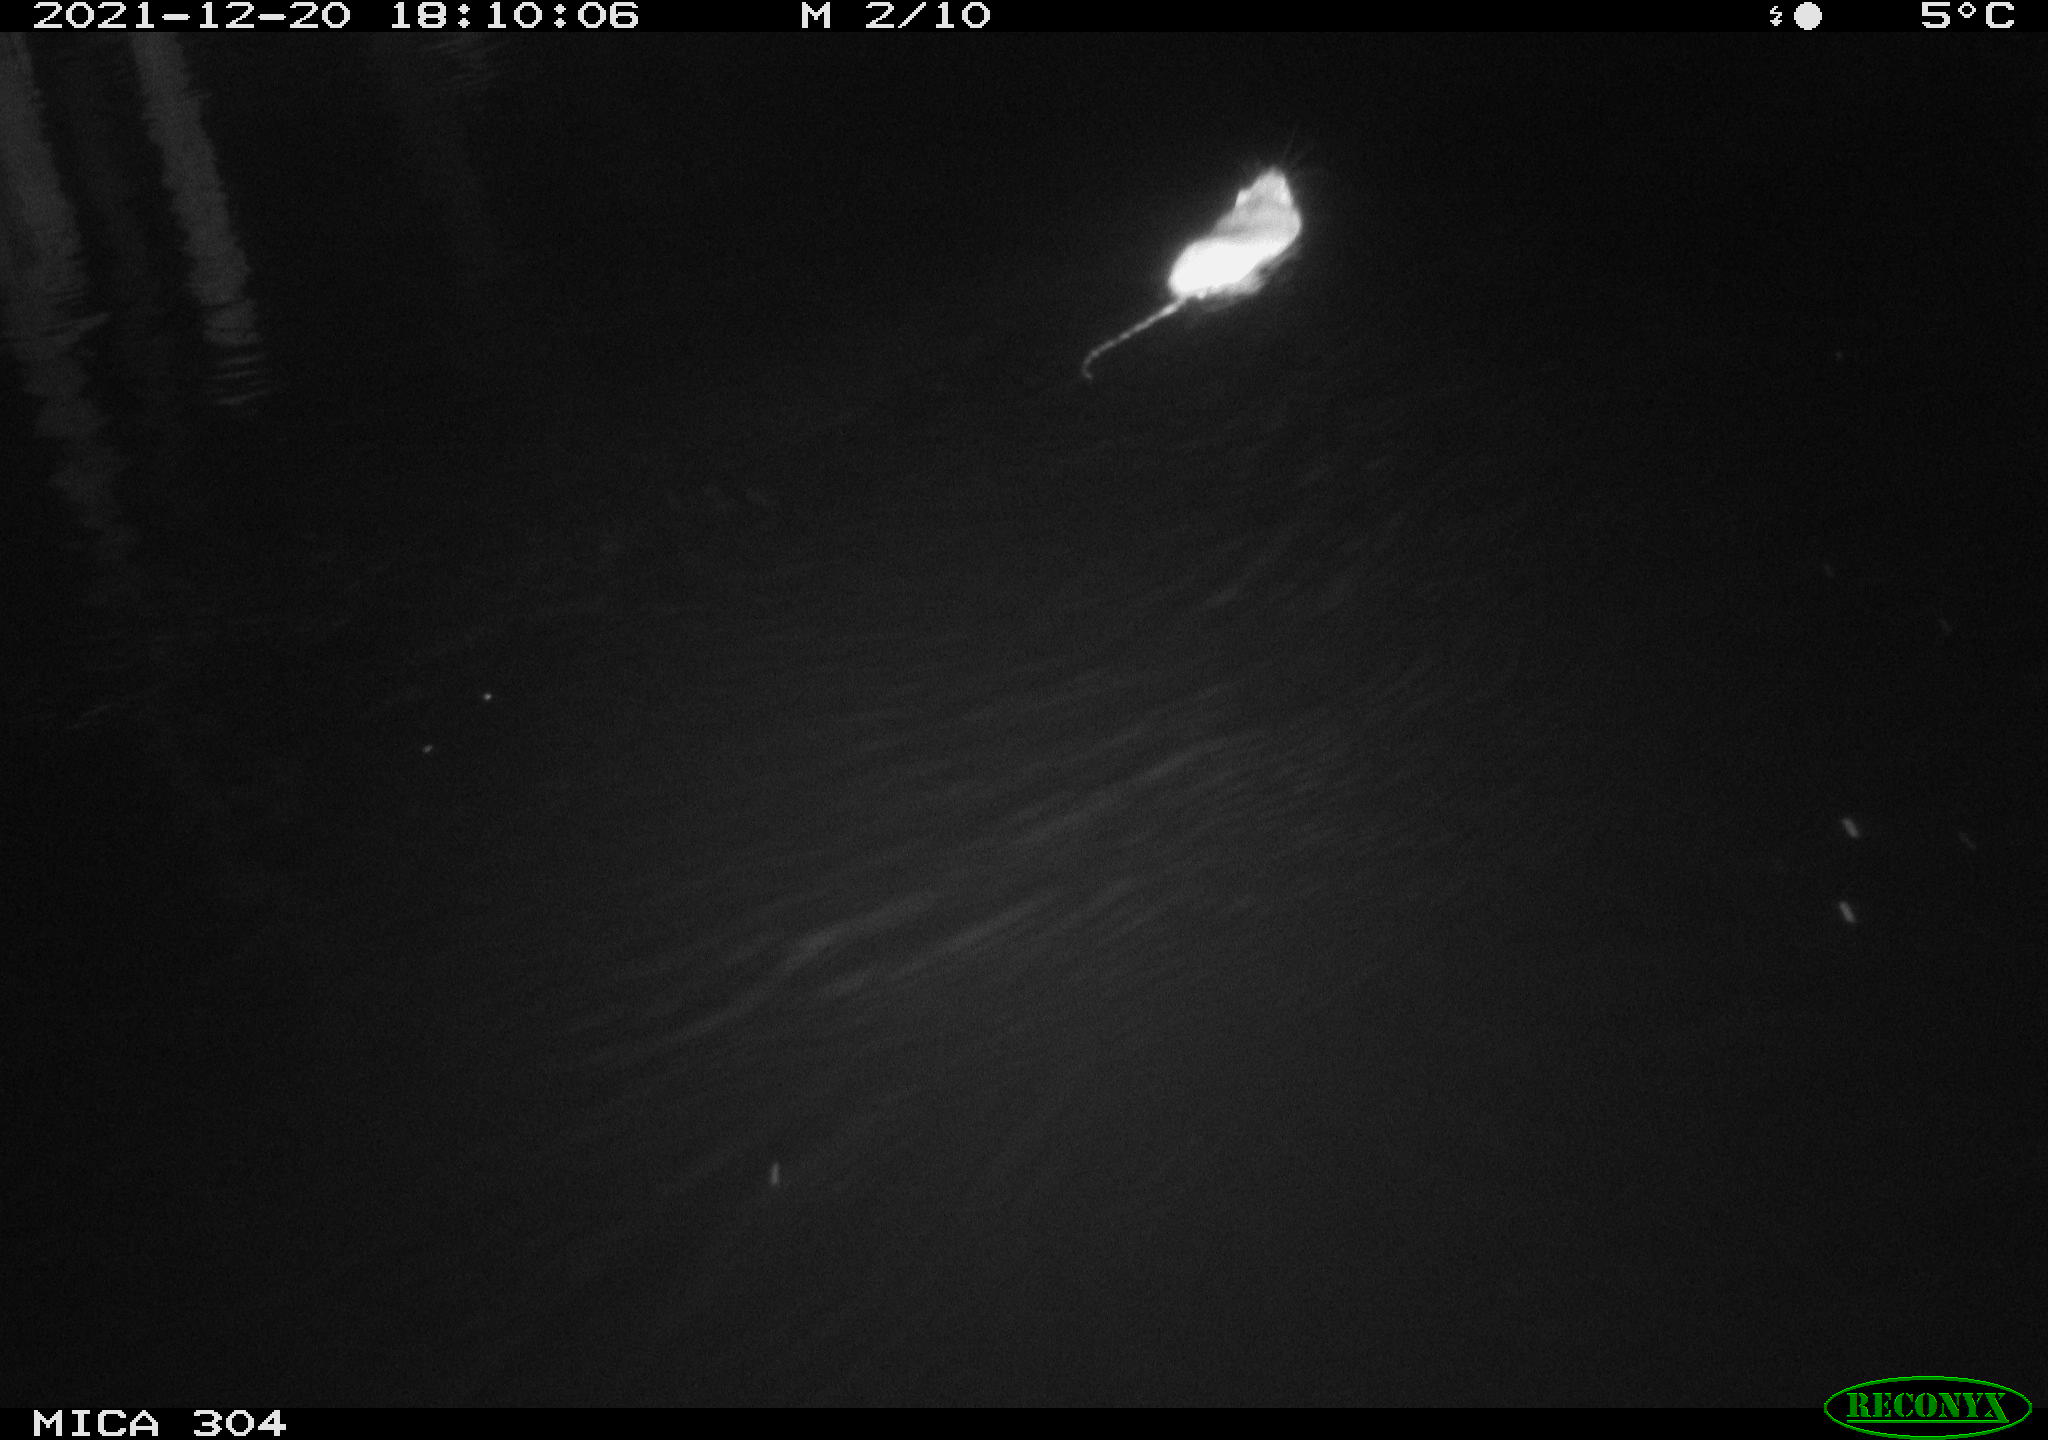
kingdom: Animalia
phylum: Chordata
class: Mammalia
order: Rodentia
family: Muridae
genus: Rattus
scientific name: Rattus norvegicus
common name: Brown rat
